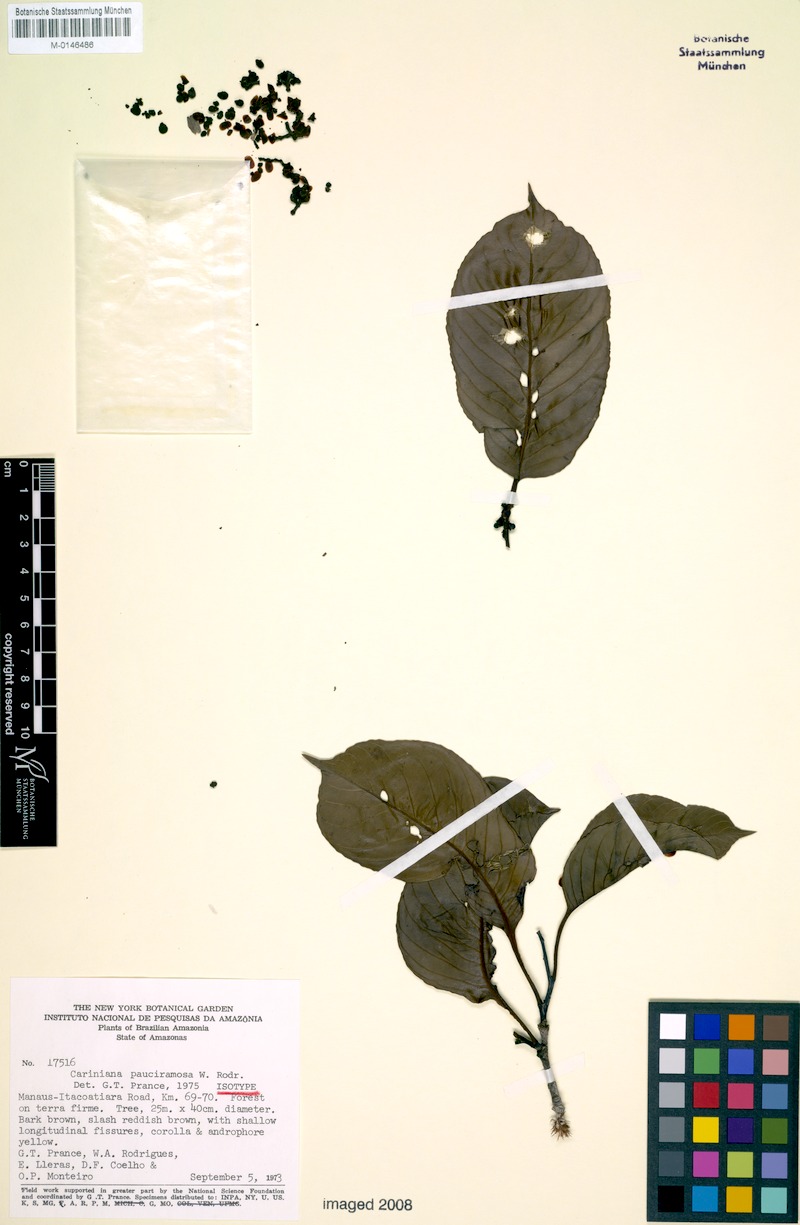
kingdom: Plantae
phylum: Tracheophyta
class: Magnoliopsida
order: Ericales
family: Lecythidaceae
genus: Allantoma
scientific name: Allantoma pauciramosa
